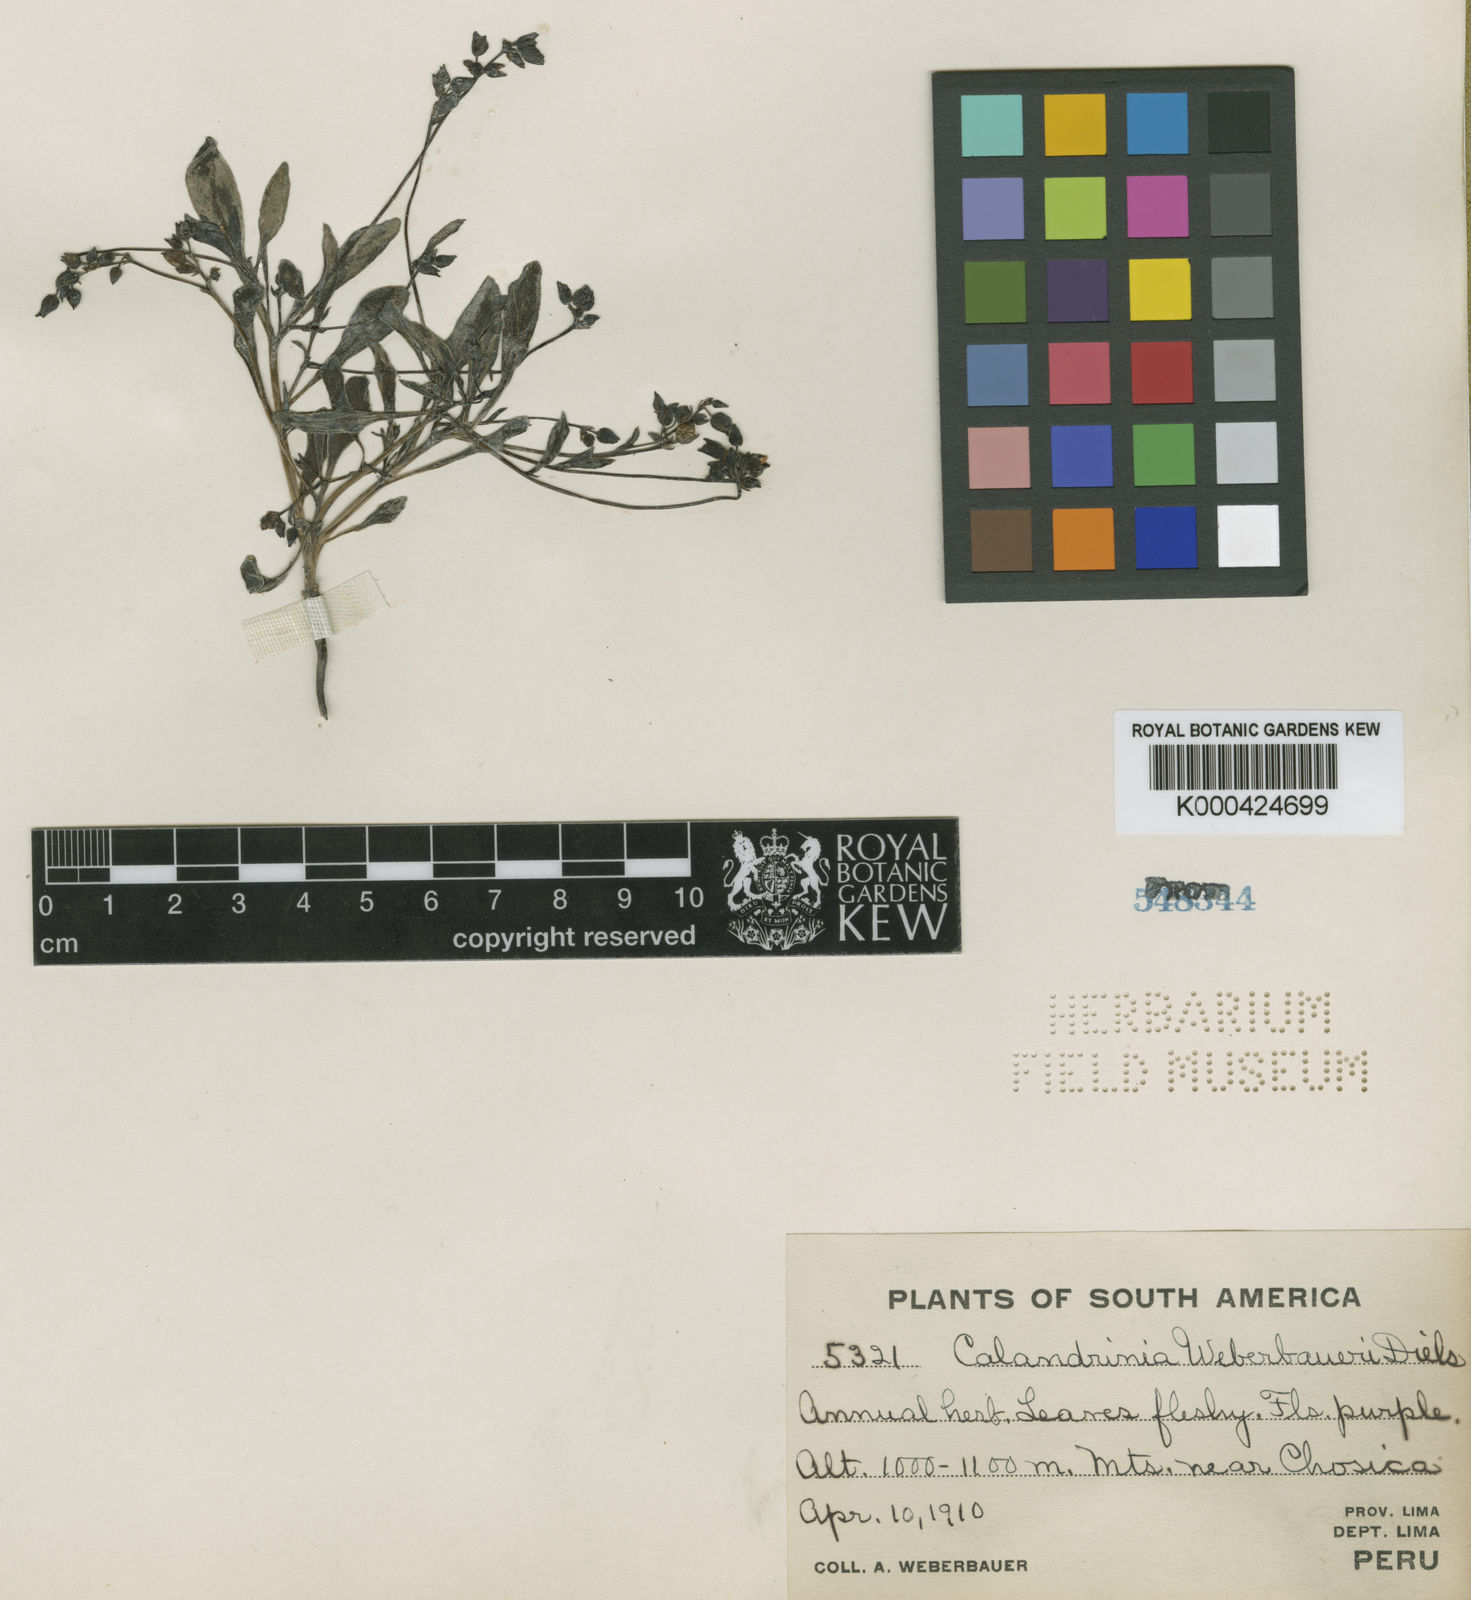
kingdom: Plantae
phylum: Tracheophyta
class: Magnoliopsida
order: Caryophyllales
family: Montiaceae
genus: Cistanthe
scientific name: Cistanthe weberbaueri
